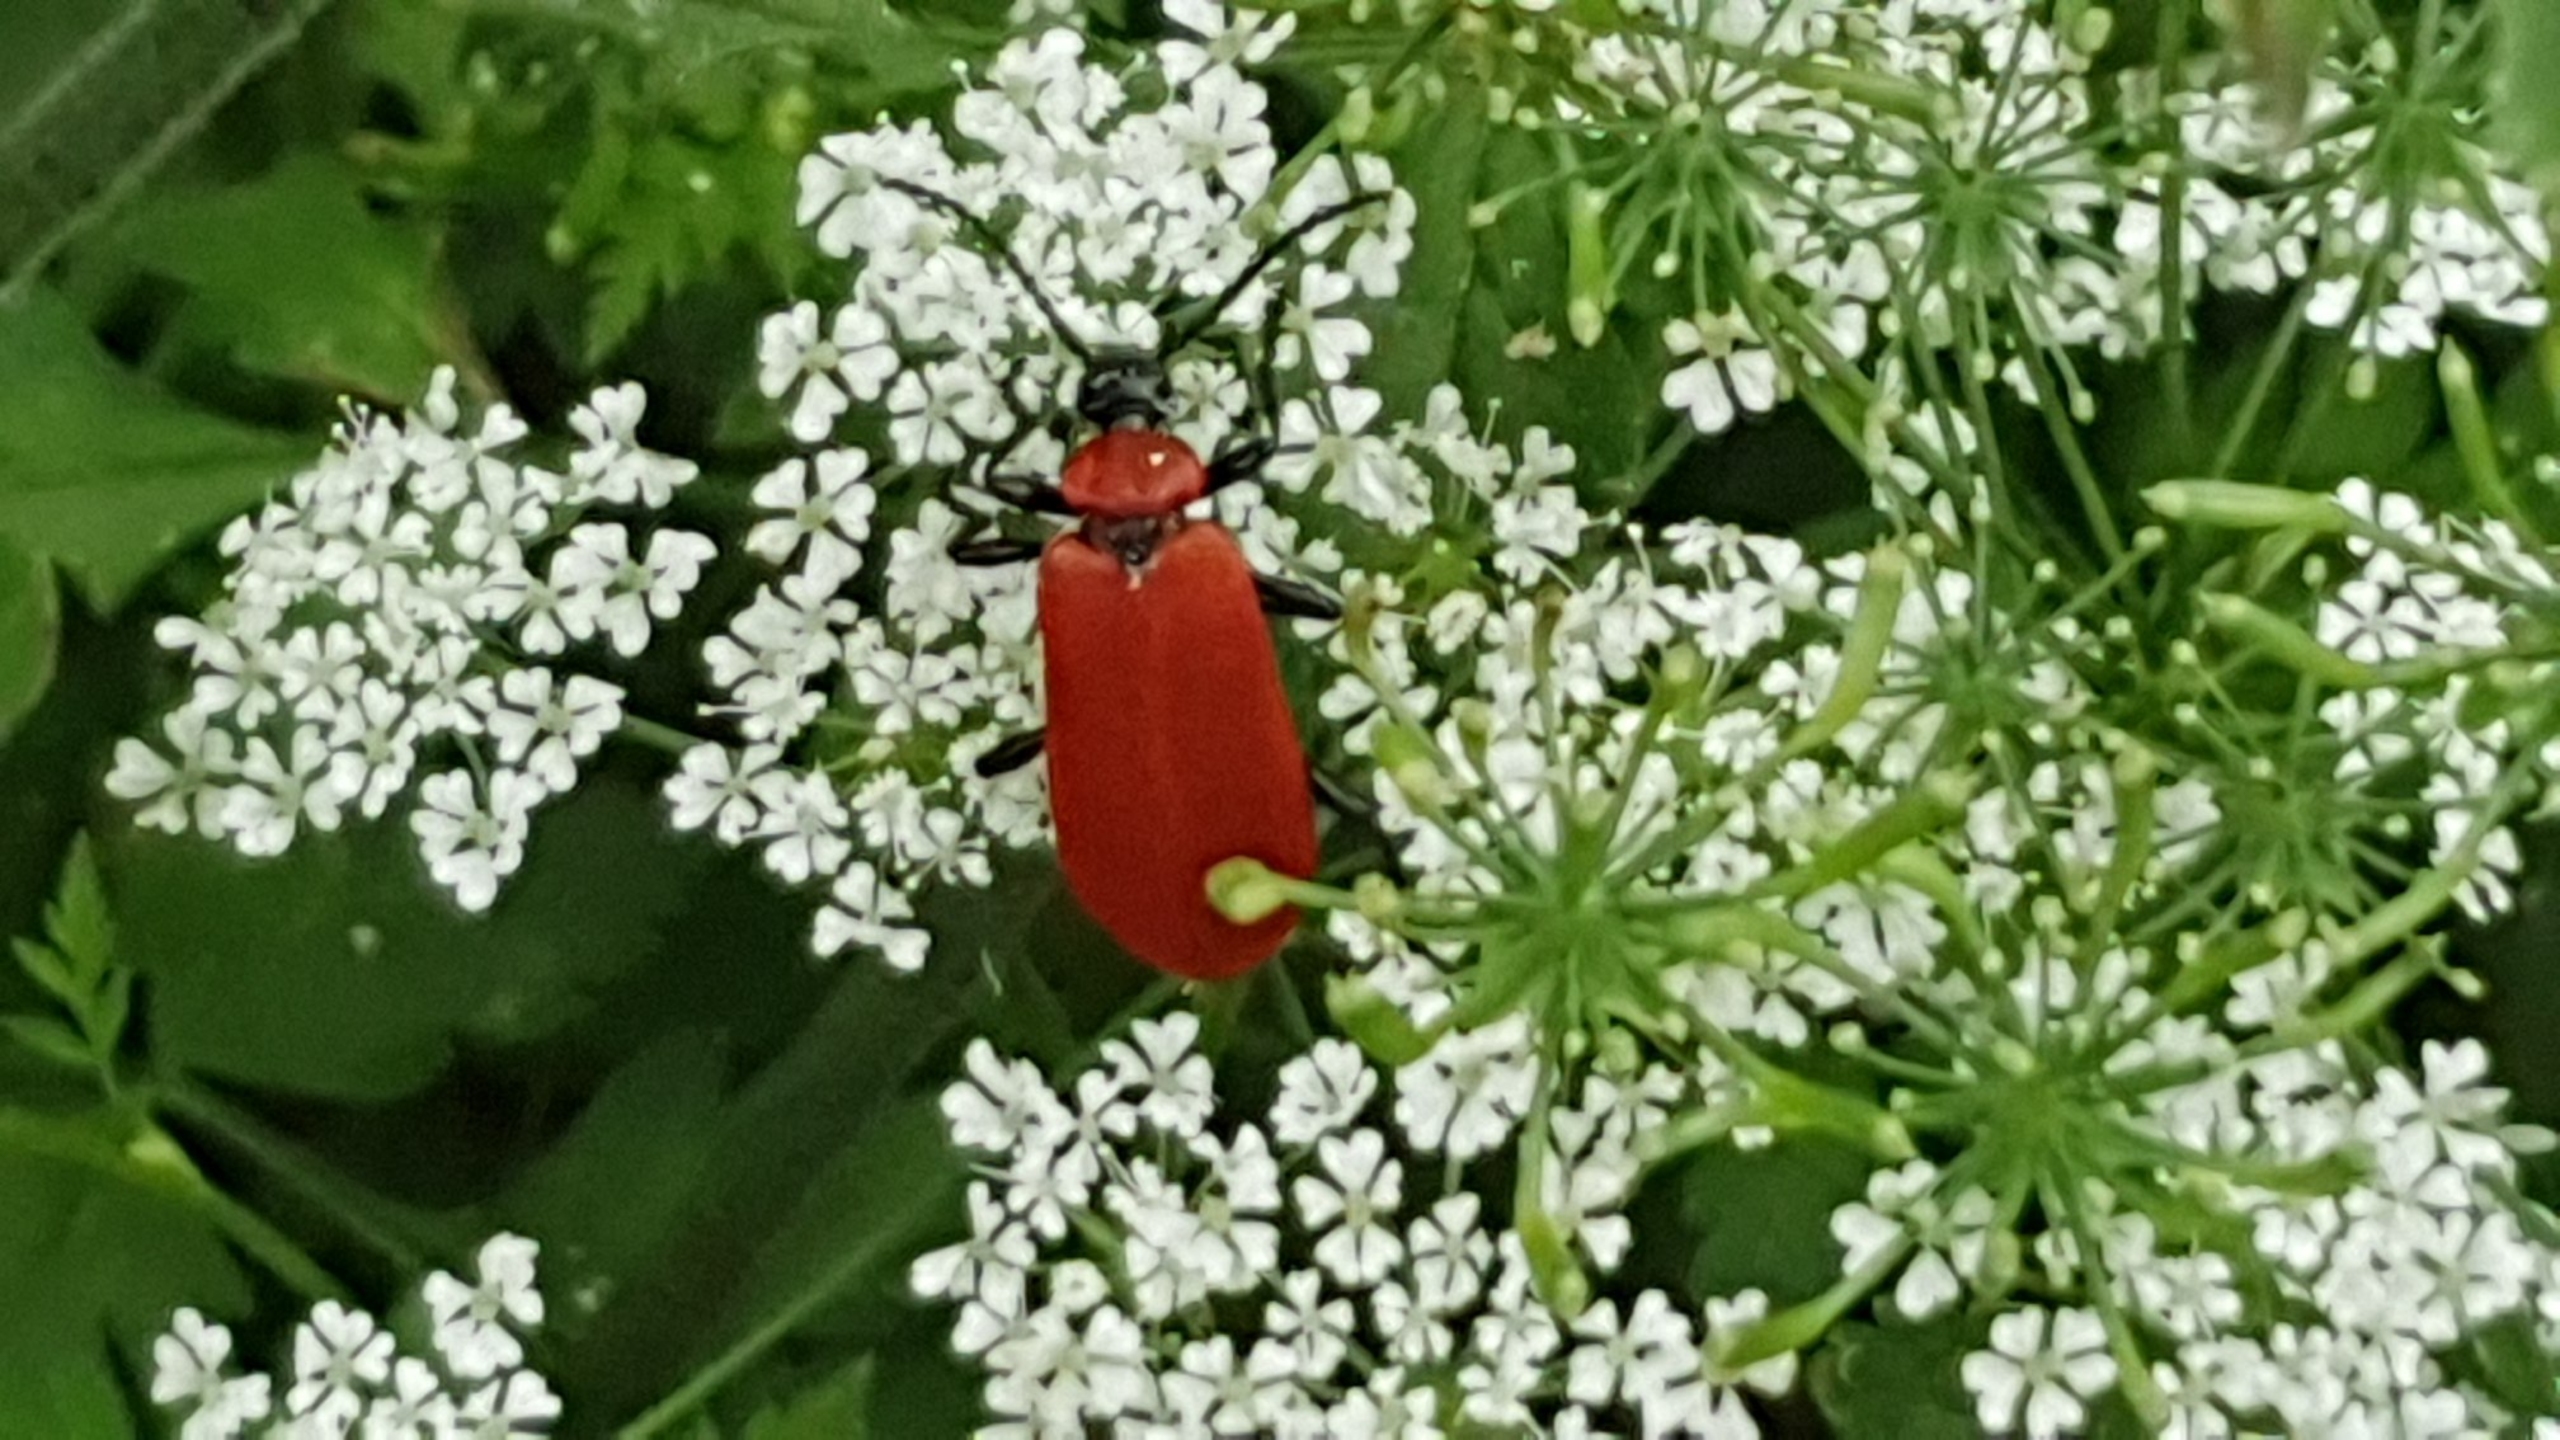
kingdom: Animalia
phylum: Arthropoda
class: Insecta
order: Coleoptera
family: Pyrochroidae
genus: Pyrochroa
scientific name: Pyrochroa coccinea
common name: Sorthovedet kardinalbille
